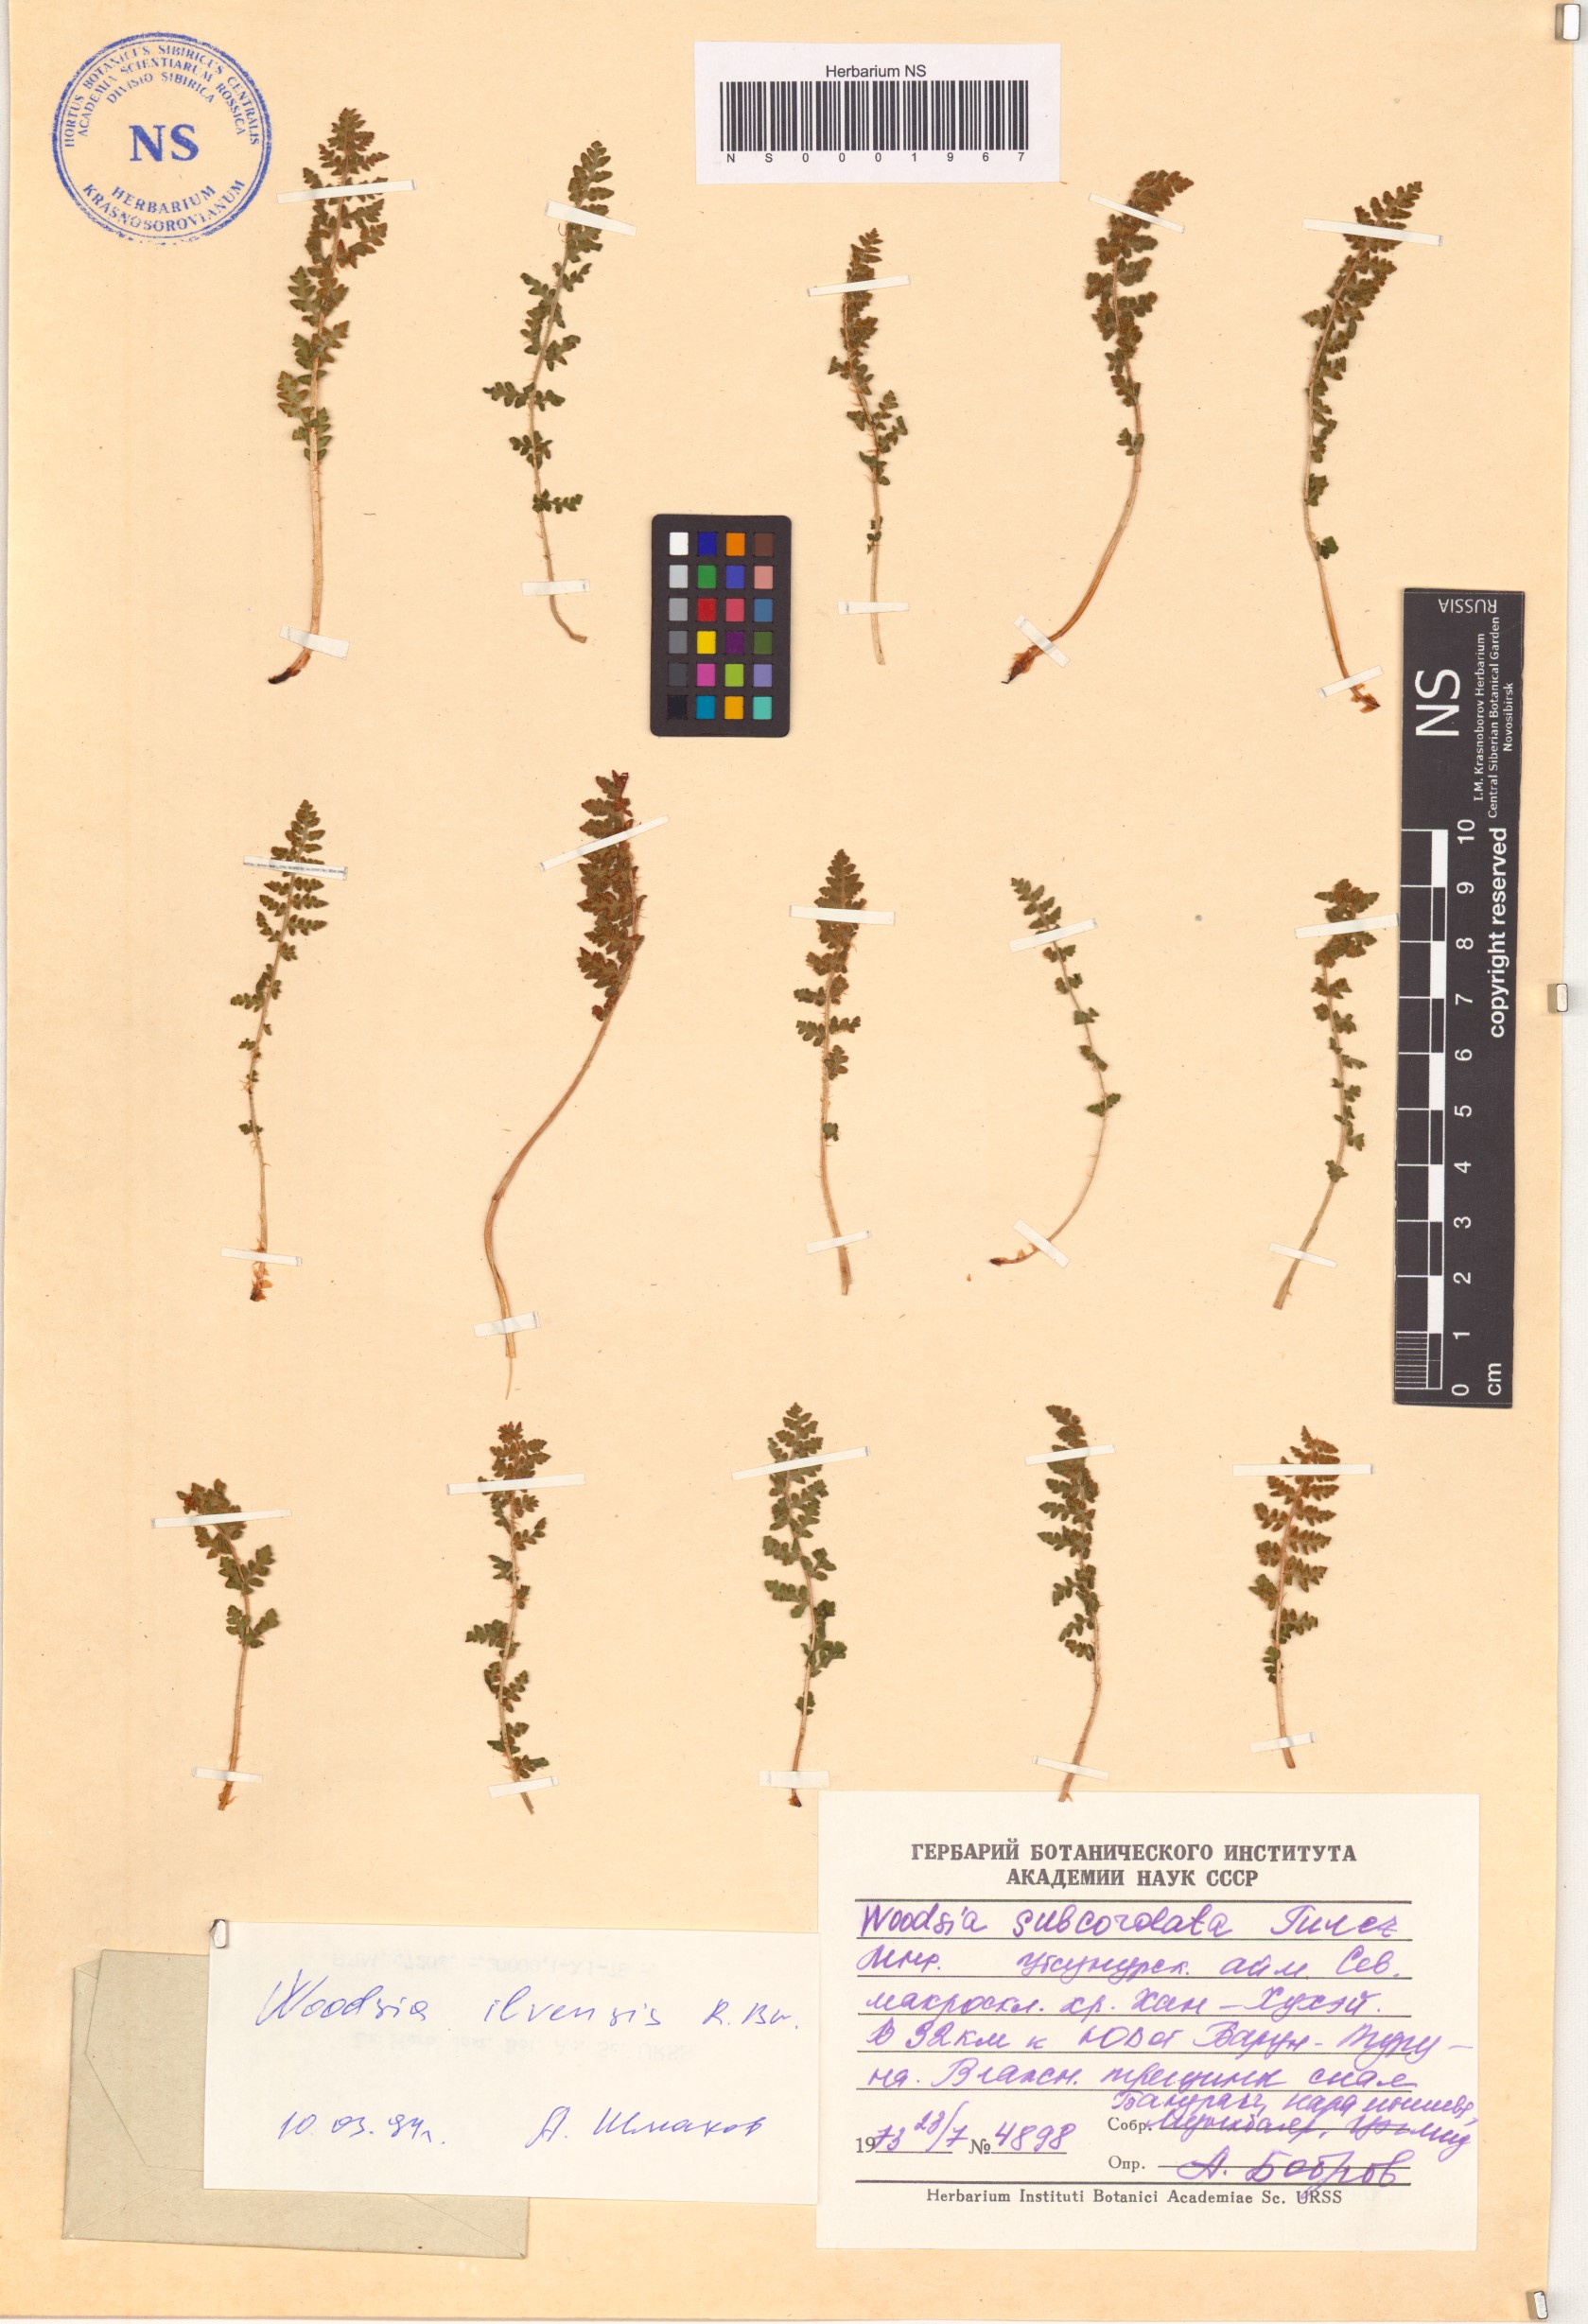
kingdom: Plantae
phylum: Tracheophyta
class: Polypodiopsida
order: Polypodiales
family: Woodsiaceae
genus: Woodsia
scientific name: Woodsia ilvensis
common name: Fragrant woodsia
